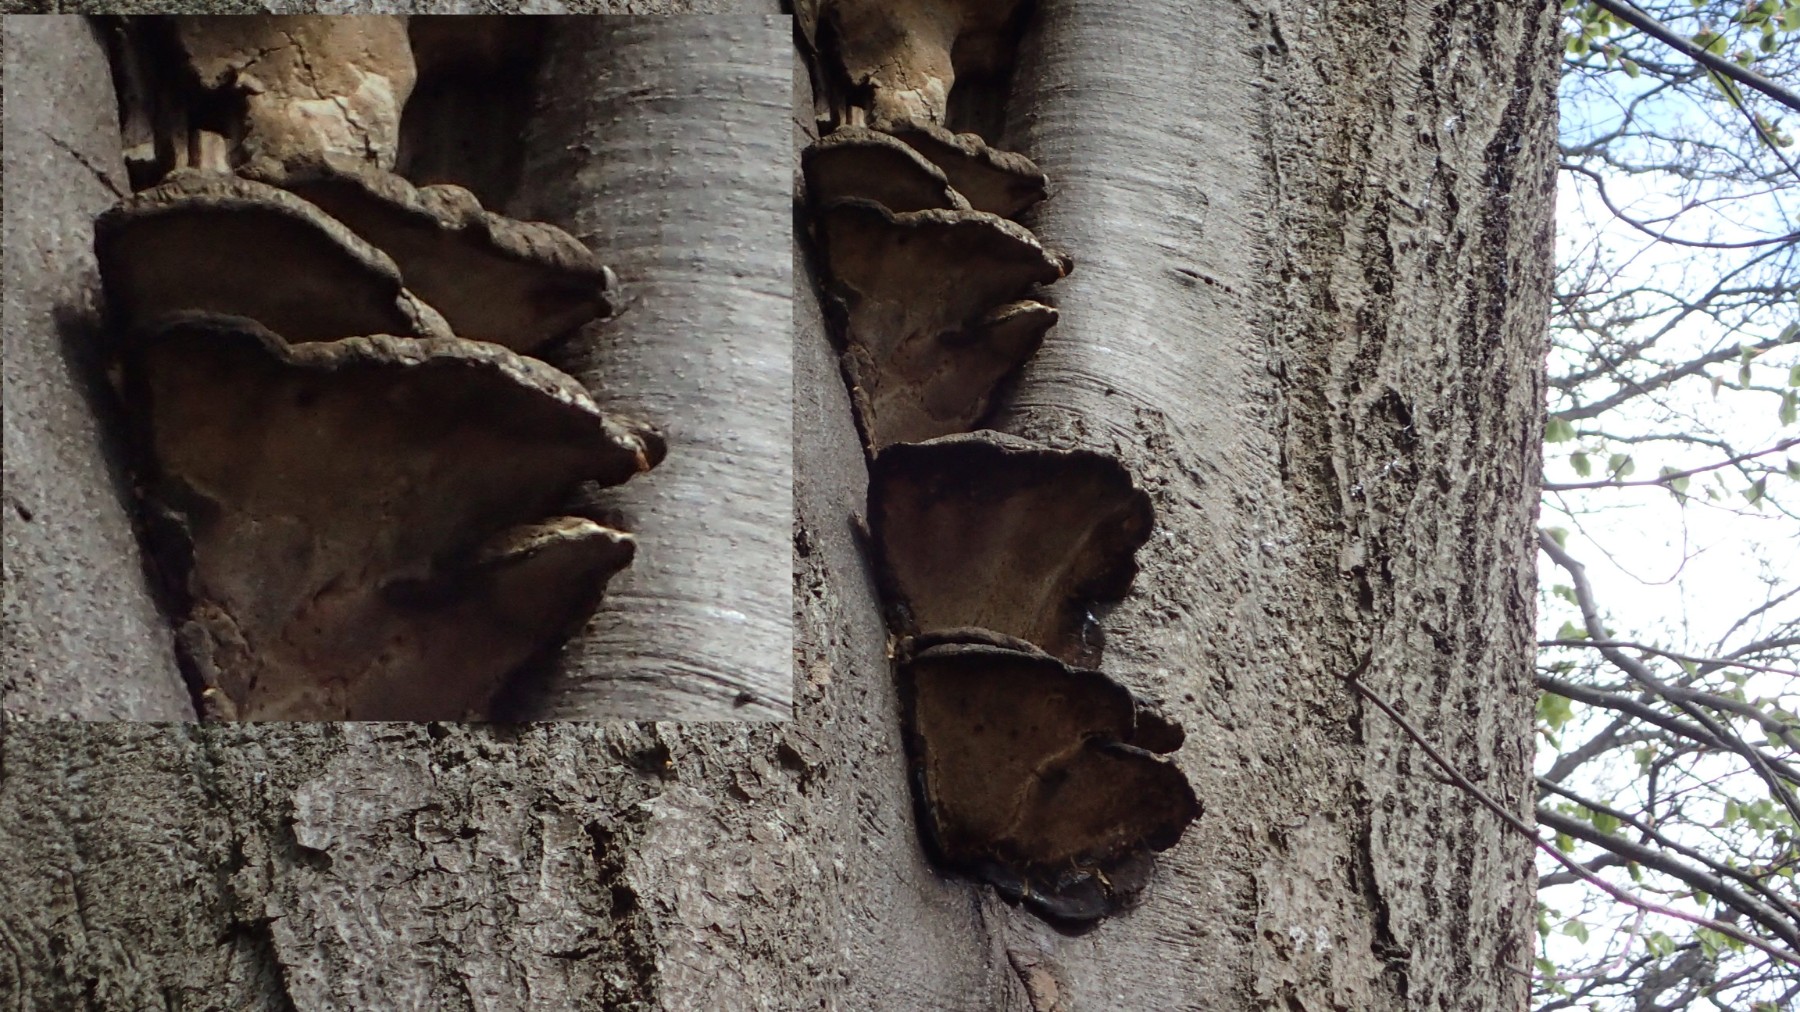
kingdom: Fungi
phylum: Basidiomycota
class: Agaricomycetes
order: Polyporales
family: Polyporaceae
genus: Ganoderma
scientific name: Ganoderma pfeifferi
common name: kobberrød lakporesvamp
